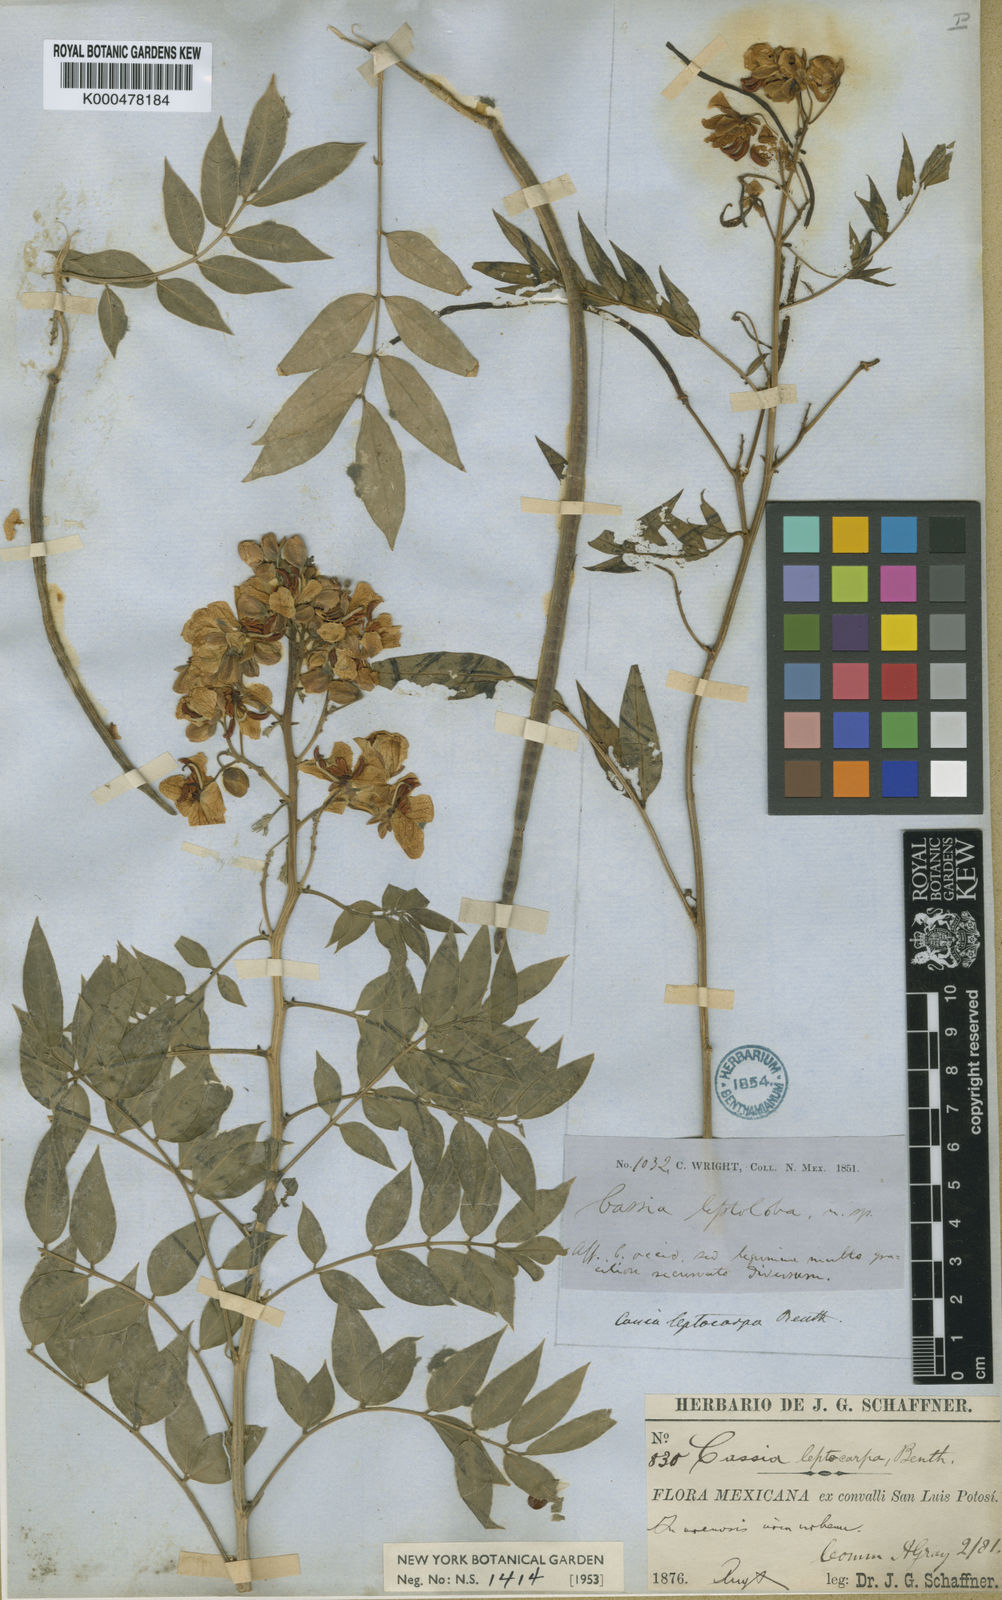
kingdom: Plantae
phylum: Tracheophyta
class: Magnoliopsida
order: Fabales
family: Fabaceae
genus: Senna
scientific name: Senna hirsuta
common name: Woolly senna
